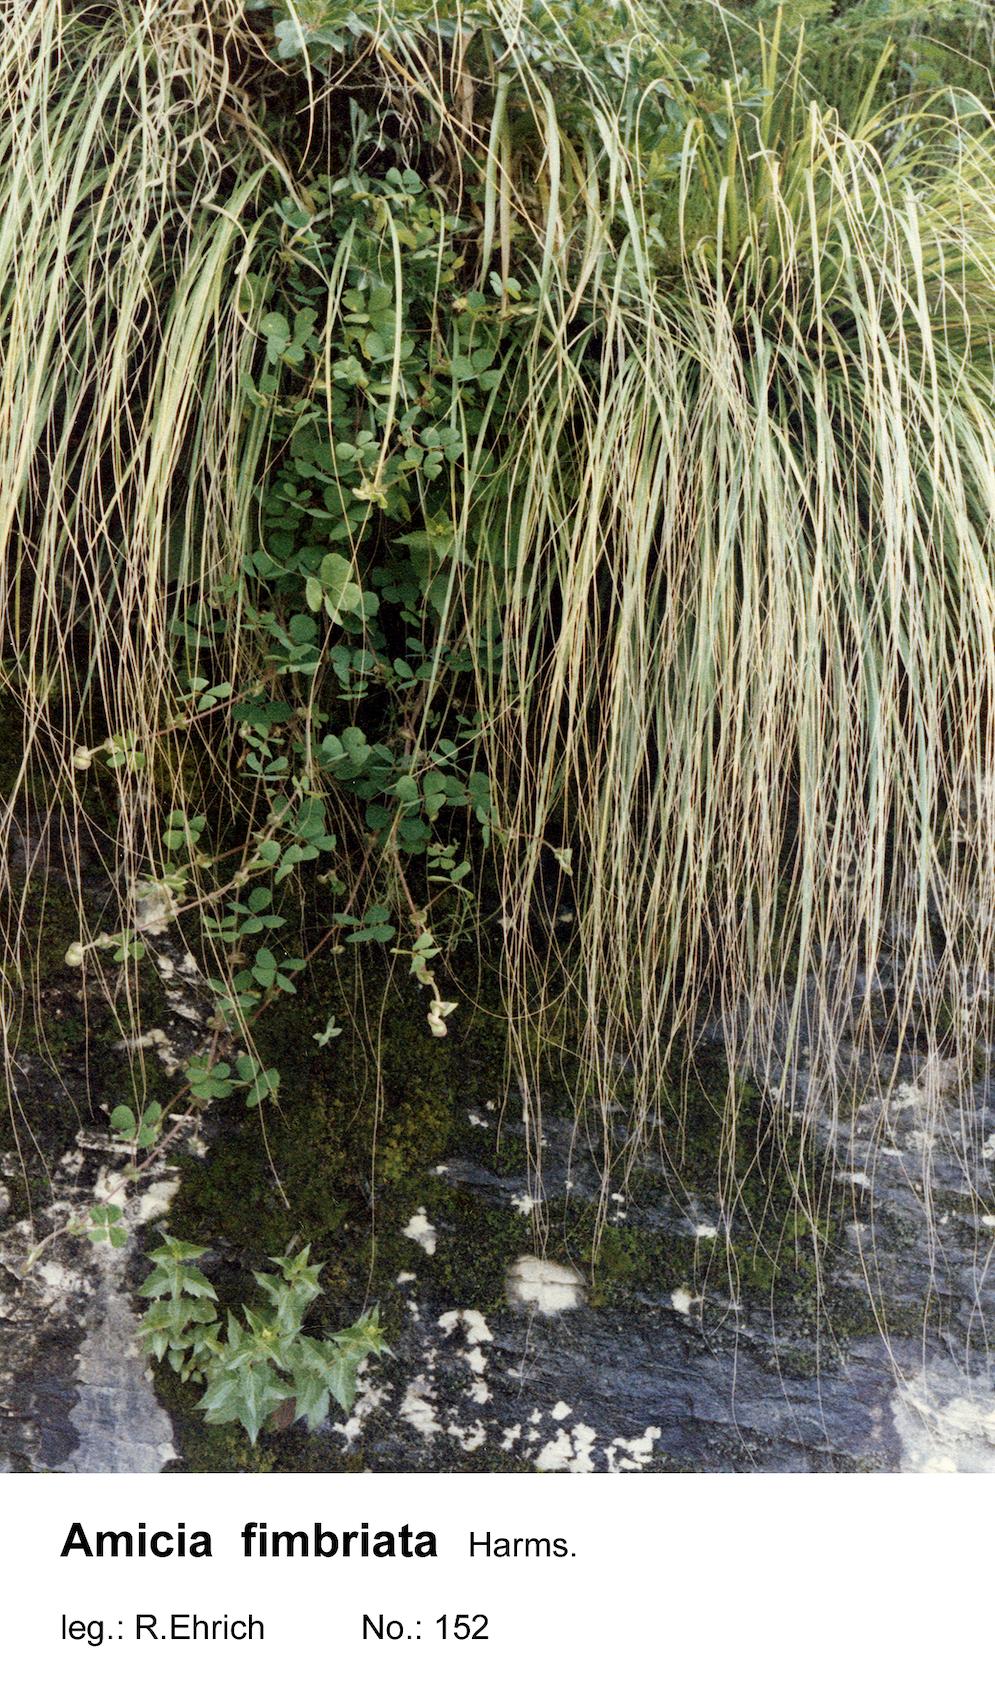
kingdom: Plantae
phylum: Tracheophyta
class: Magnoliopsida
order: Fabales
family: Fabaceae
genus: Amicia
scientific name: Amicia fimbriata
